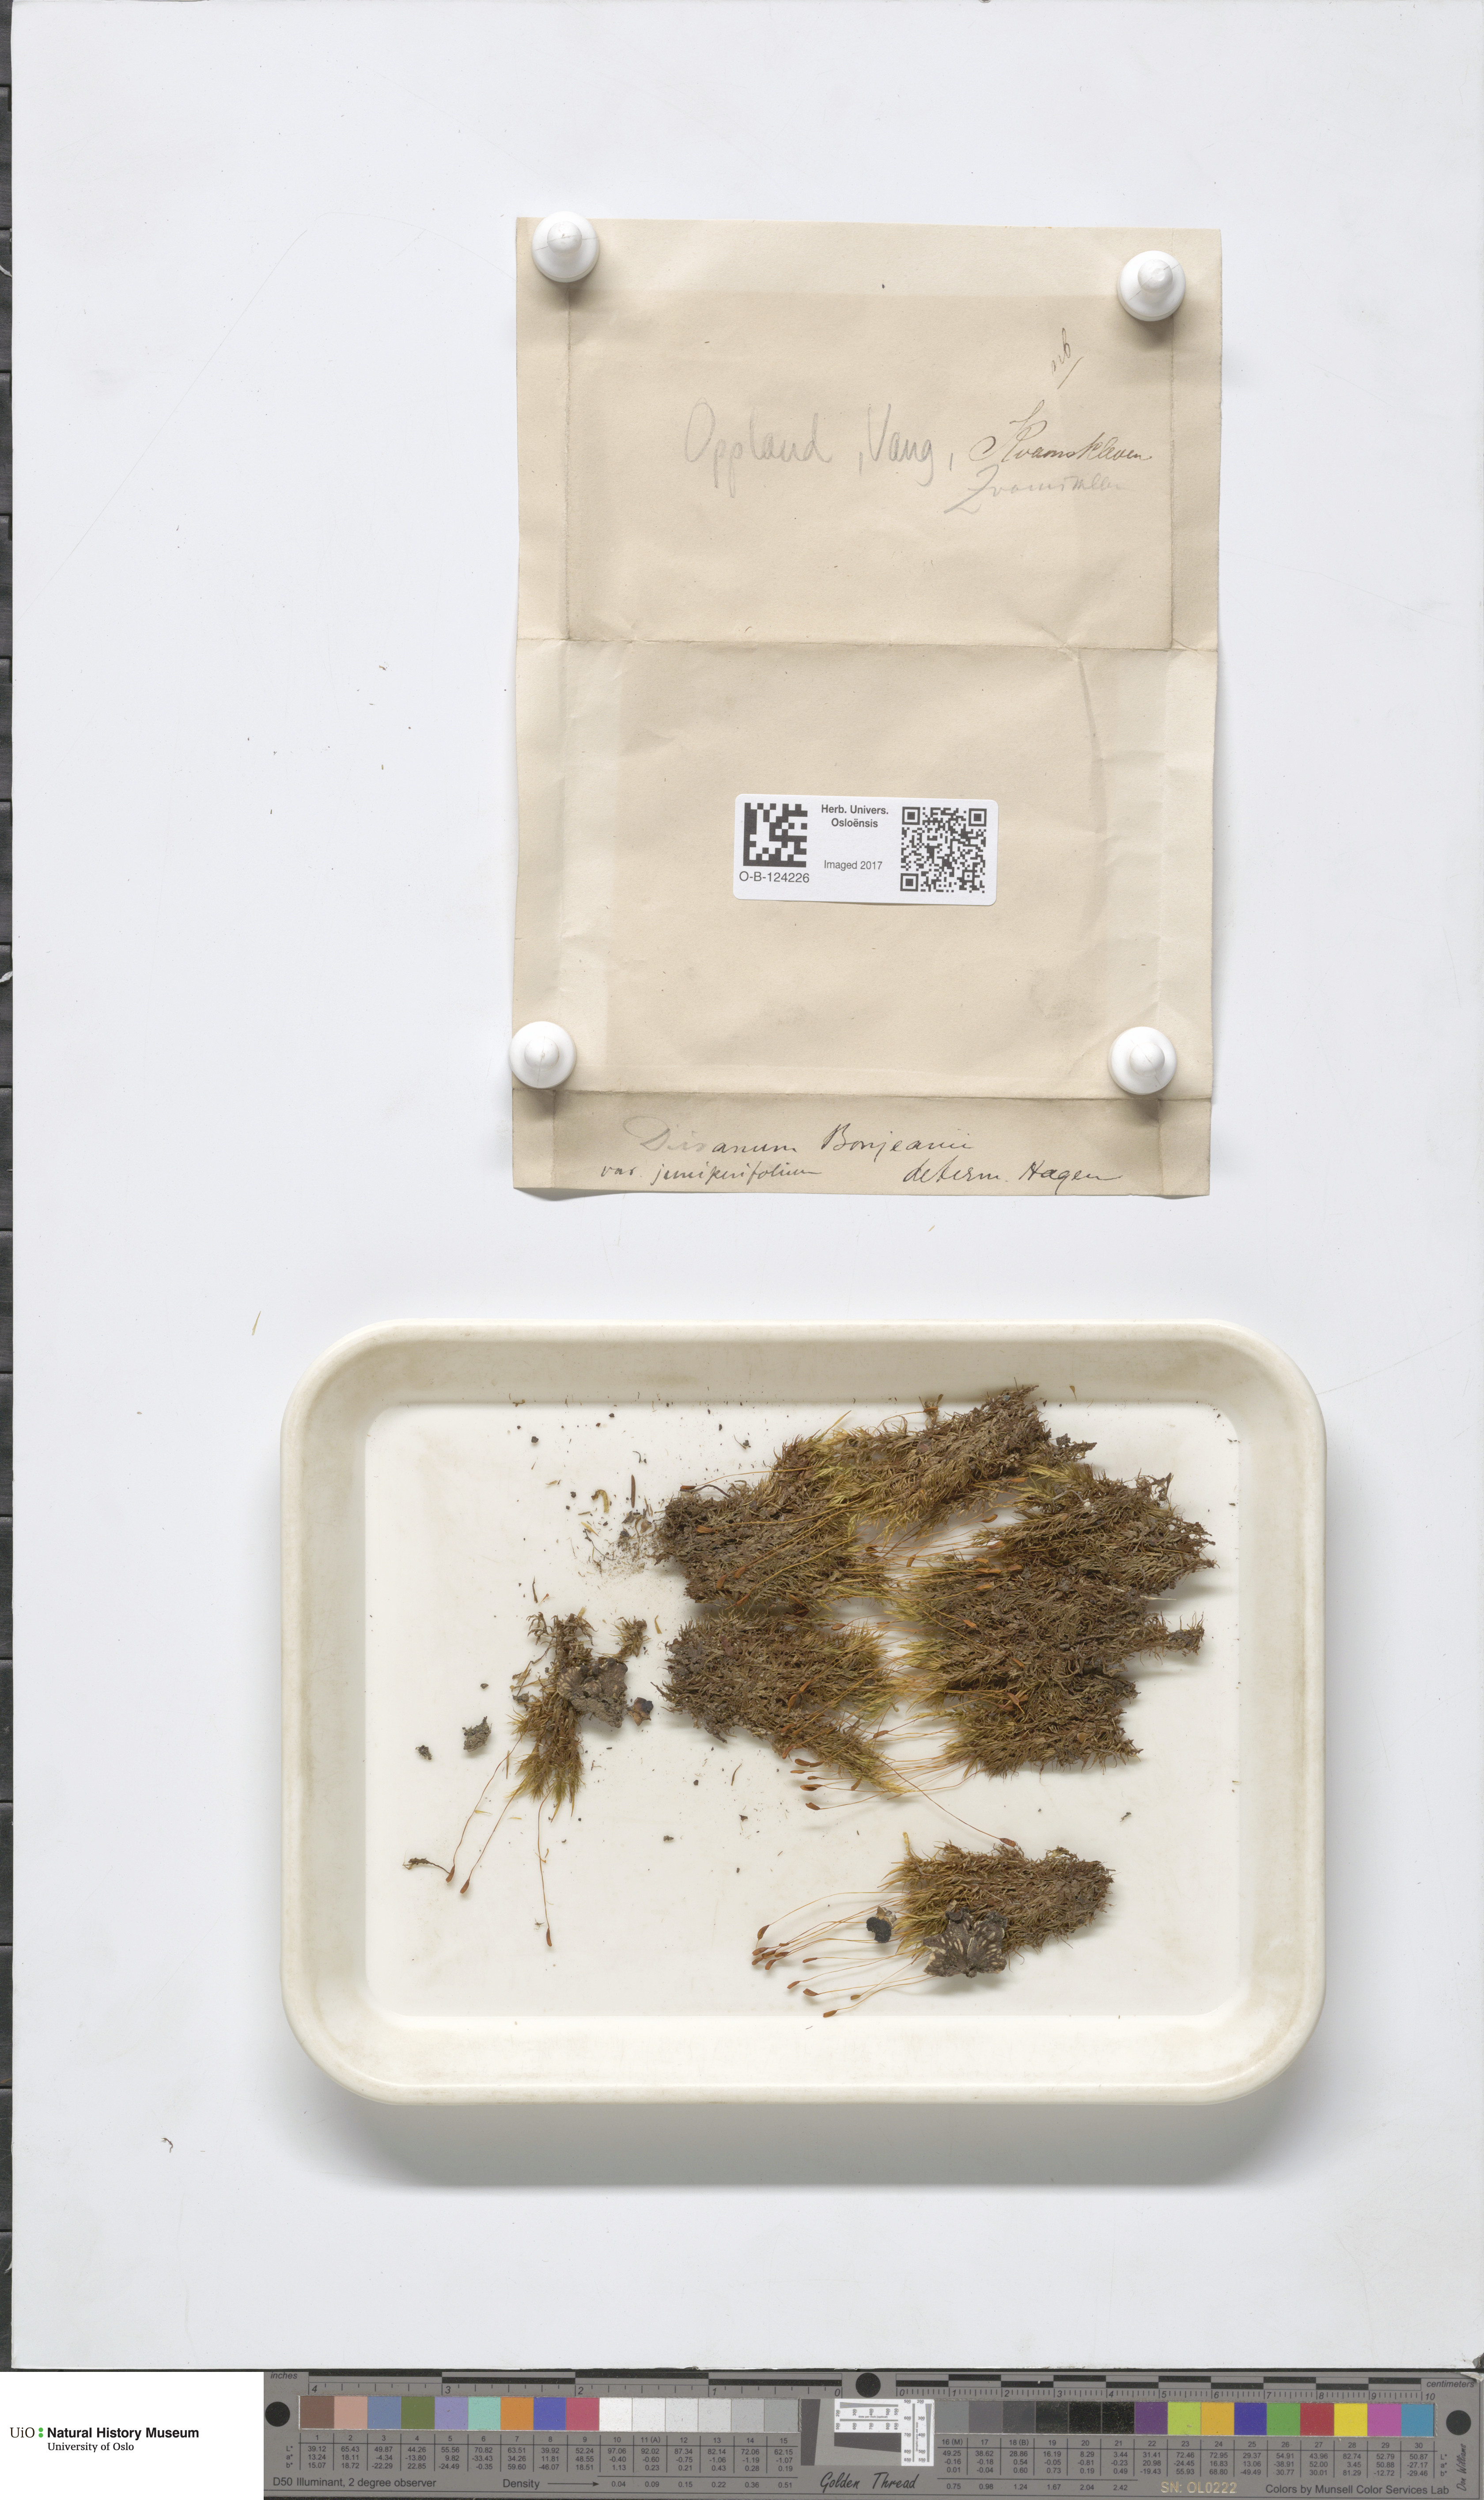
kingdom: Plantae
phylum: Bryophyta
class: Bryopsida
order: Dicranales
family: Dicranaceae
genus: Dicranum
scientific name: Dicranum bonjeanii
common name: Bonjean's broom moss
